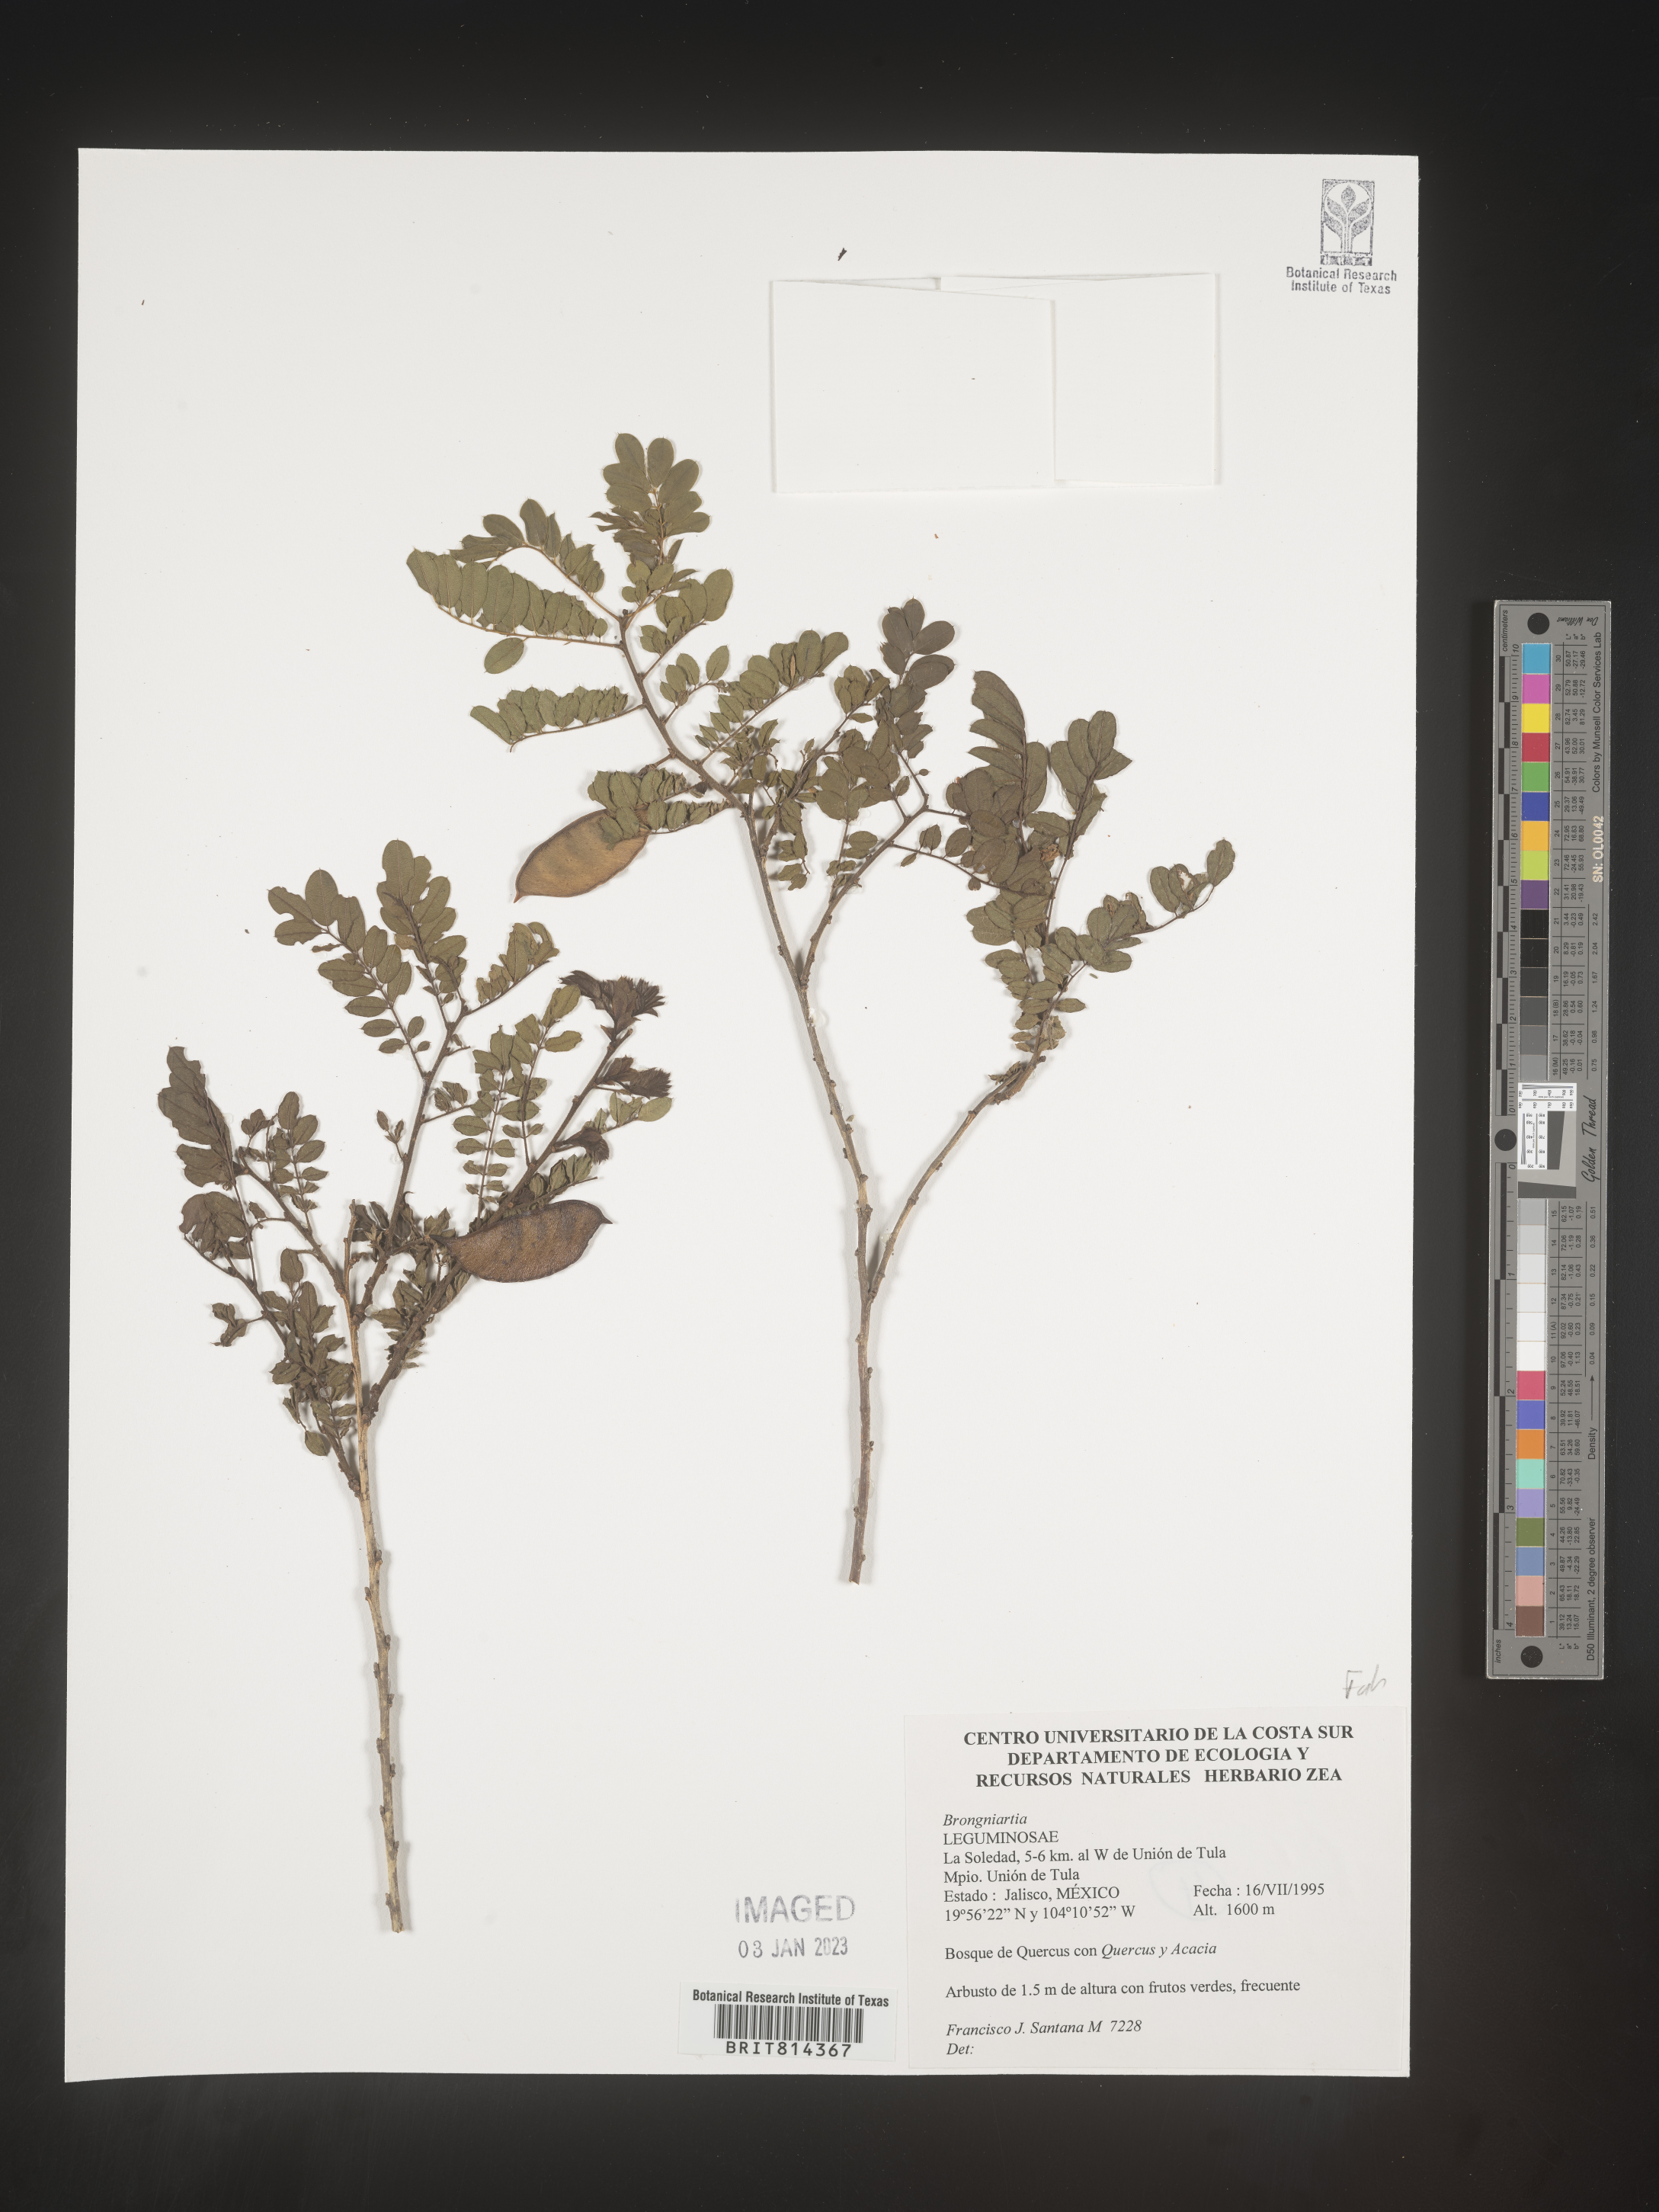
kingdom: Plantae
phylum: Tracheophyta
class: Magnoliopsida
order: Fabales
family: Fabaceae
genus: Brongniartia
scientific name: Brongniartia
